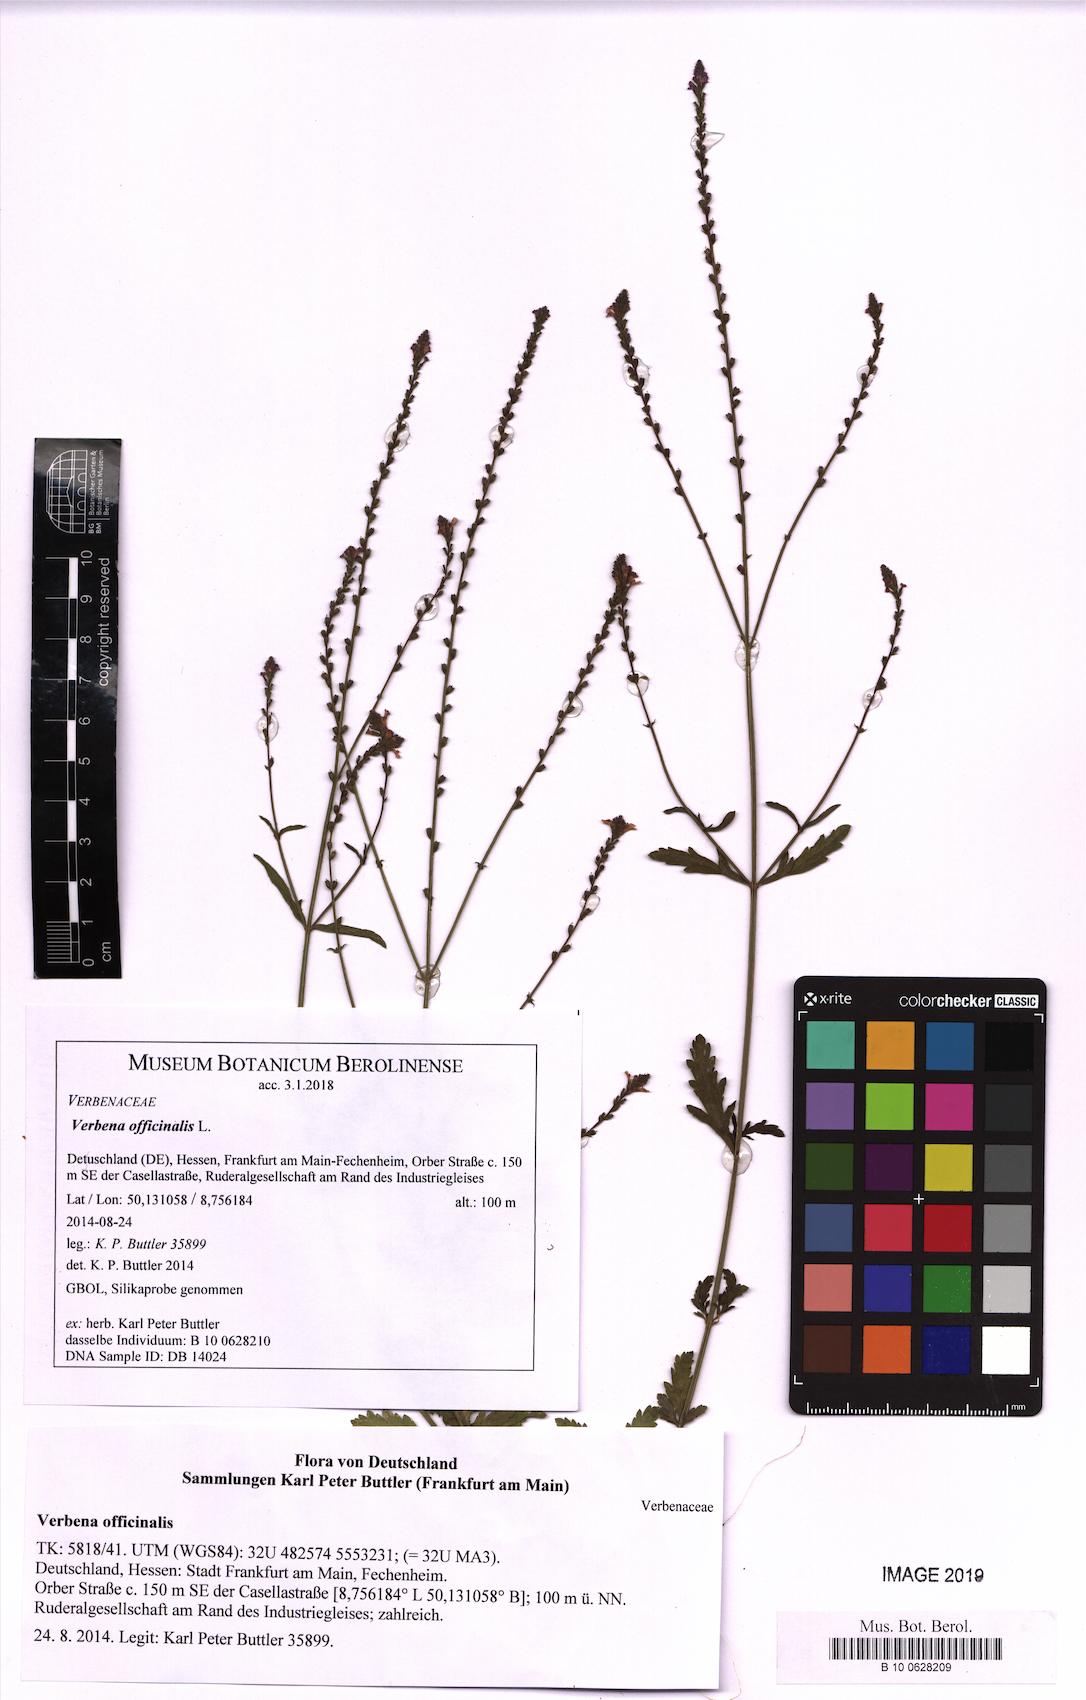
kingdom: Plantae
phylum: Tracheophyta
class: Magnoliopsida
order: Lamiales
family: Verbenaceae
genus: Verbena
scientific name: Verbena officinalis
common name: Vervain
